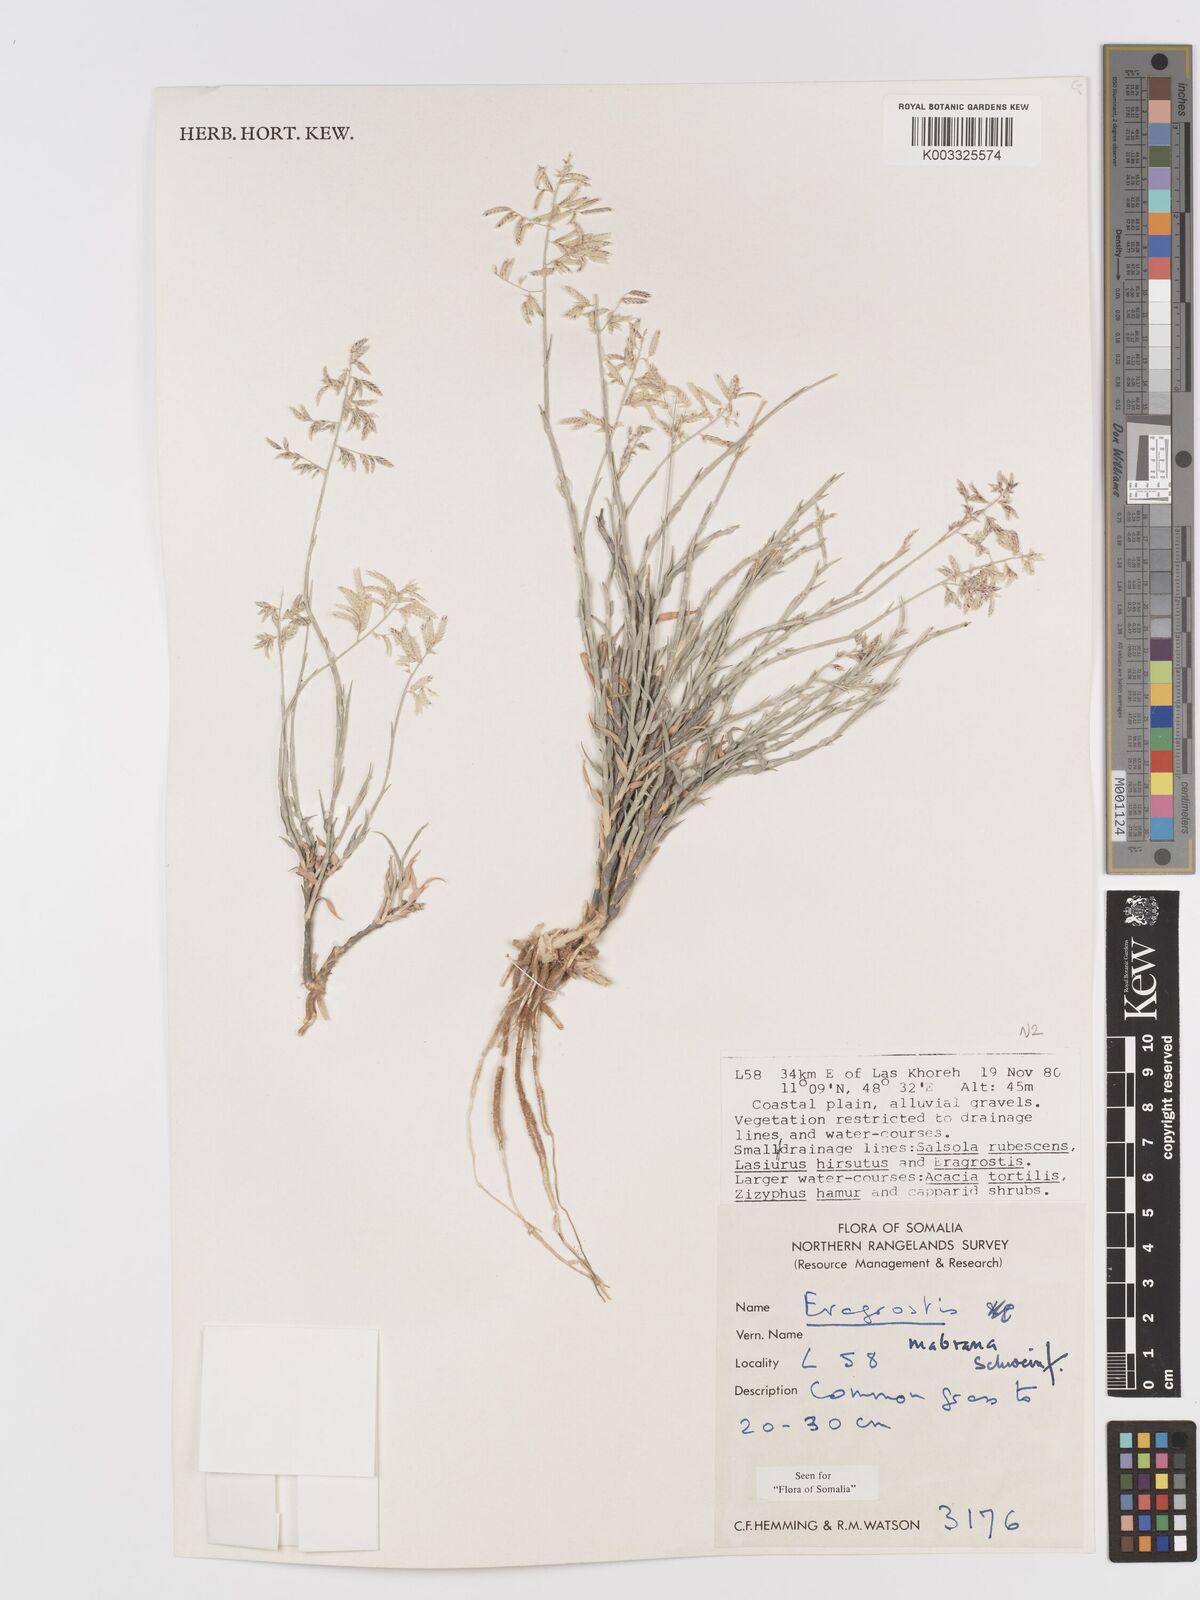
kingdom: Plantae
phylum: Tracheophyta
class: Liliopsida
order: Poales
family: Poaceae
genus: Eragrostis
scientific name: Eragrostis mahrana
